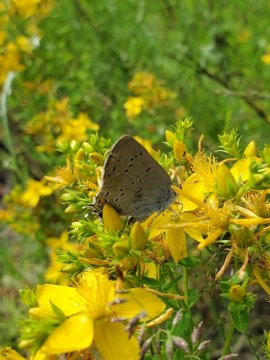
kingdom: Animalia
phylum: Arthropoda
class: Insecta
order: Lepidoptera
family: Lycaenidae
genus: Strymon
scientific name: Strymon sylvinus
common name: Sylvan Hairstreak
